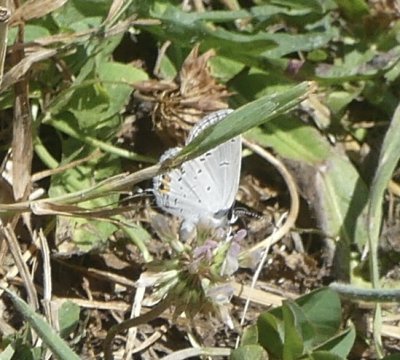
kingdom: Animalia
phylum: Arthropoda
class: Insecta
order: Lepidoptera
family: Lycaenidae
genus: Elkalyce
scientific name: Elkalyce comyntas
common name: Eastern Tailed-Blue
